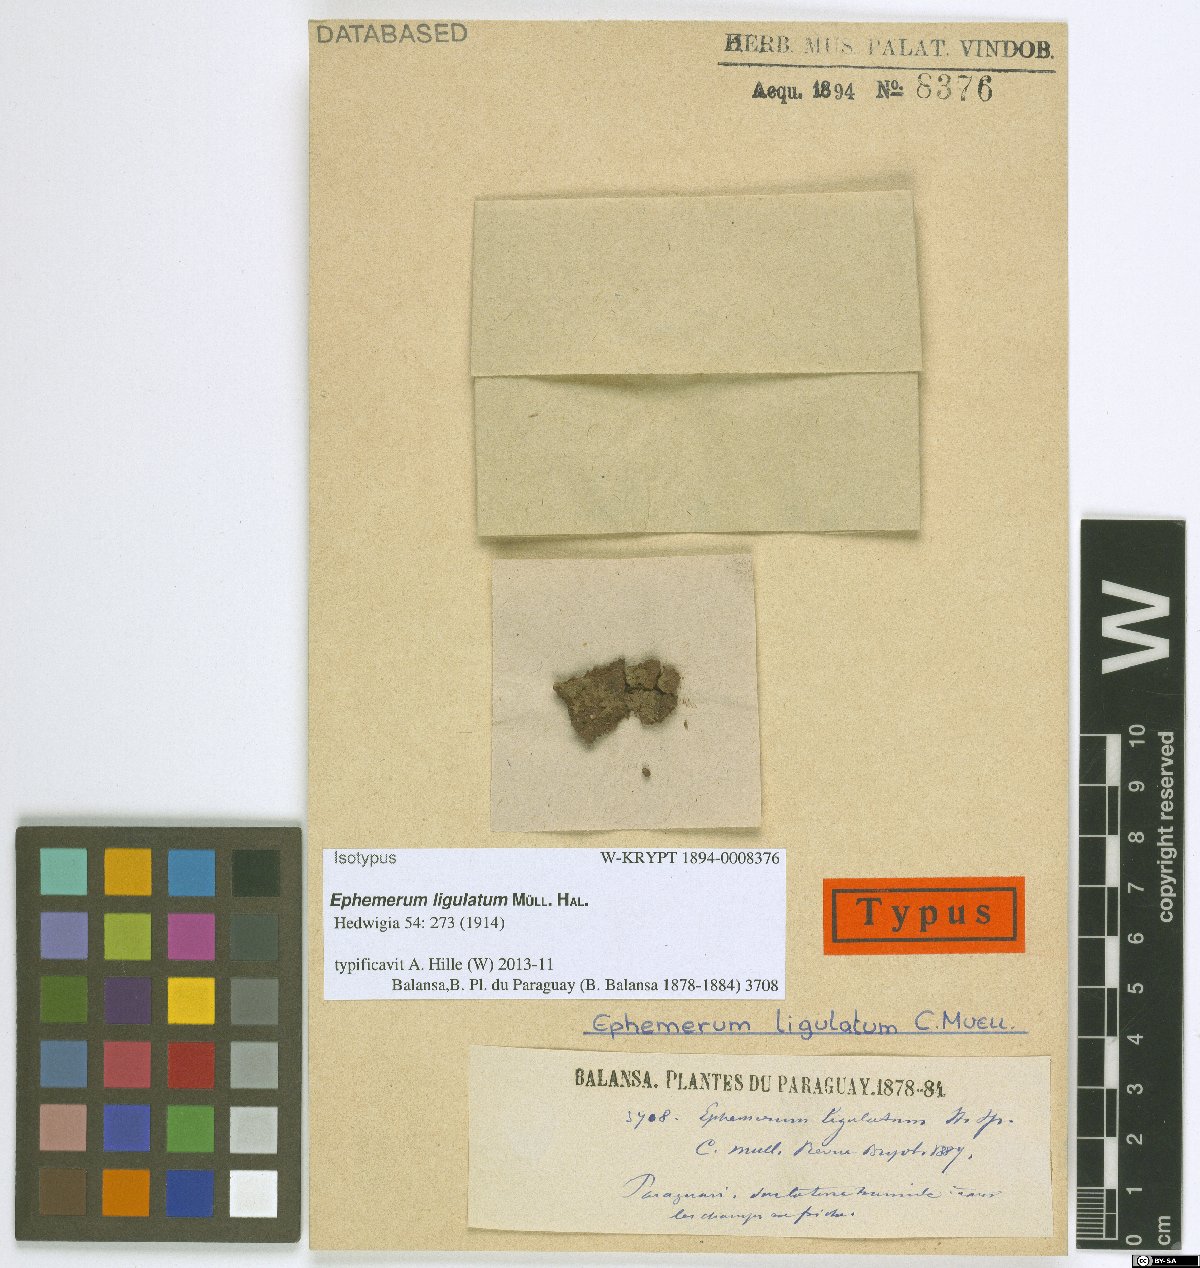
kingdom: Plantae
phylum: Bryophyta
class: Bryopsida
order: Pottiales
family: Ephemeraceae
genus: Ephemerum
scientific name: Ephemerum ligulatum
